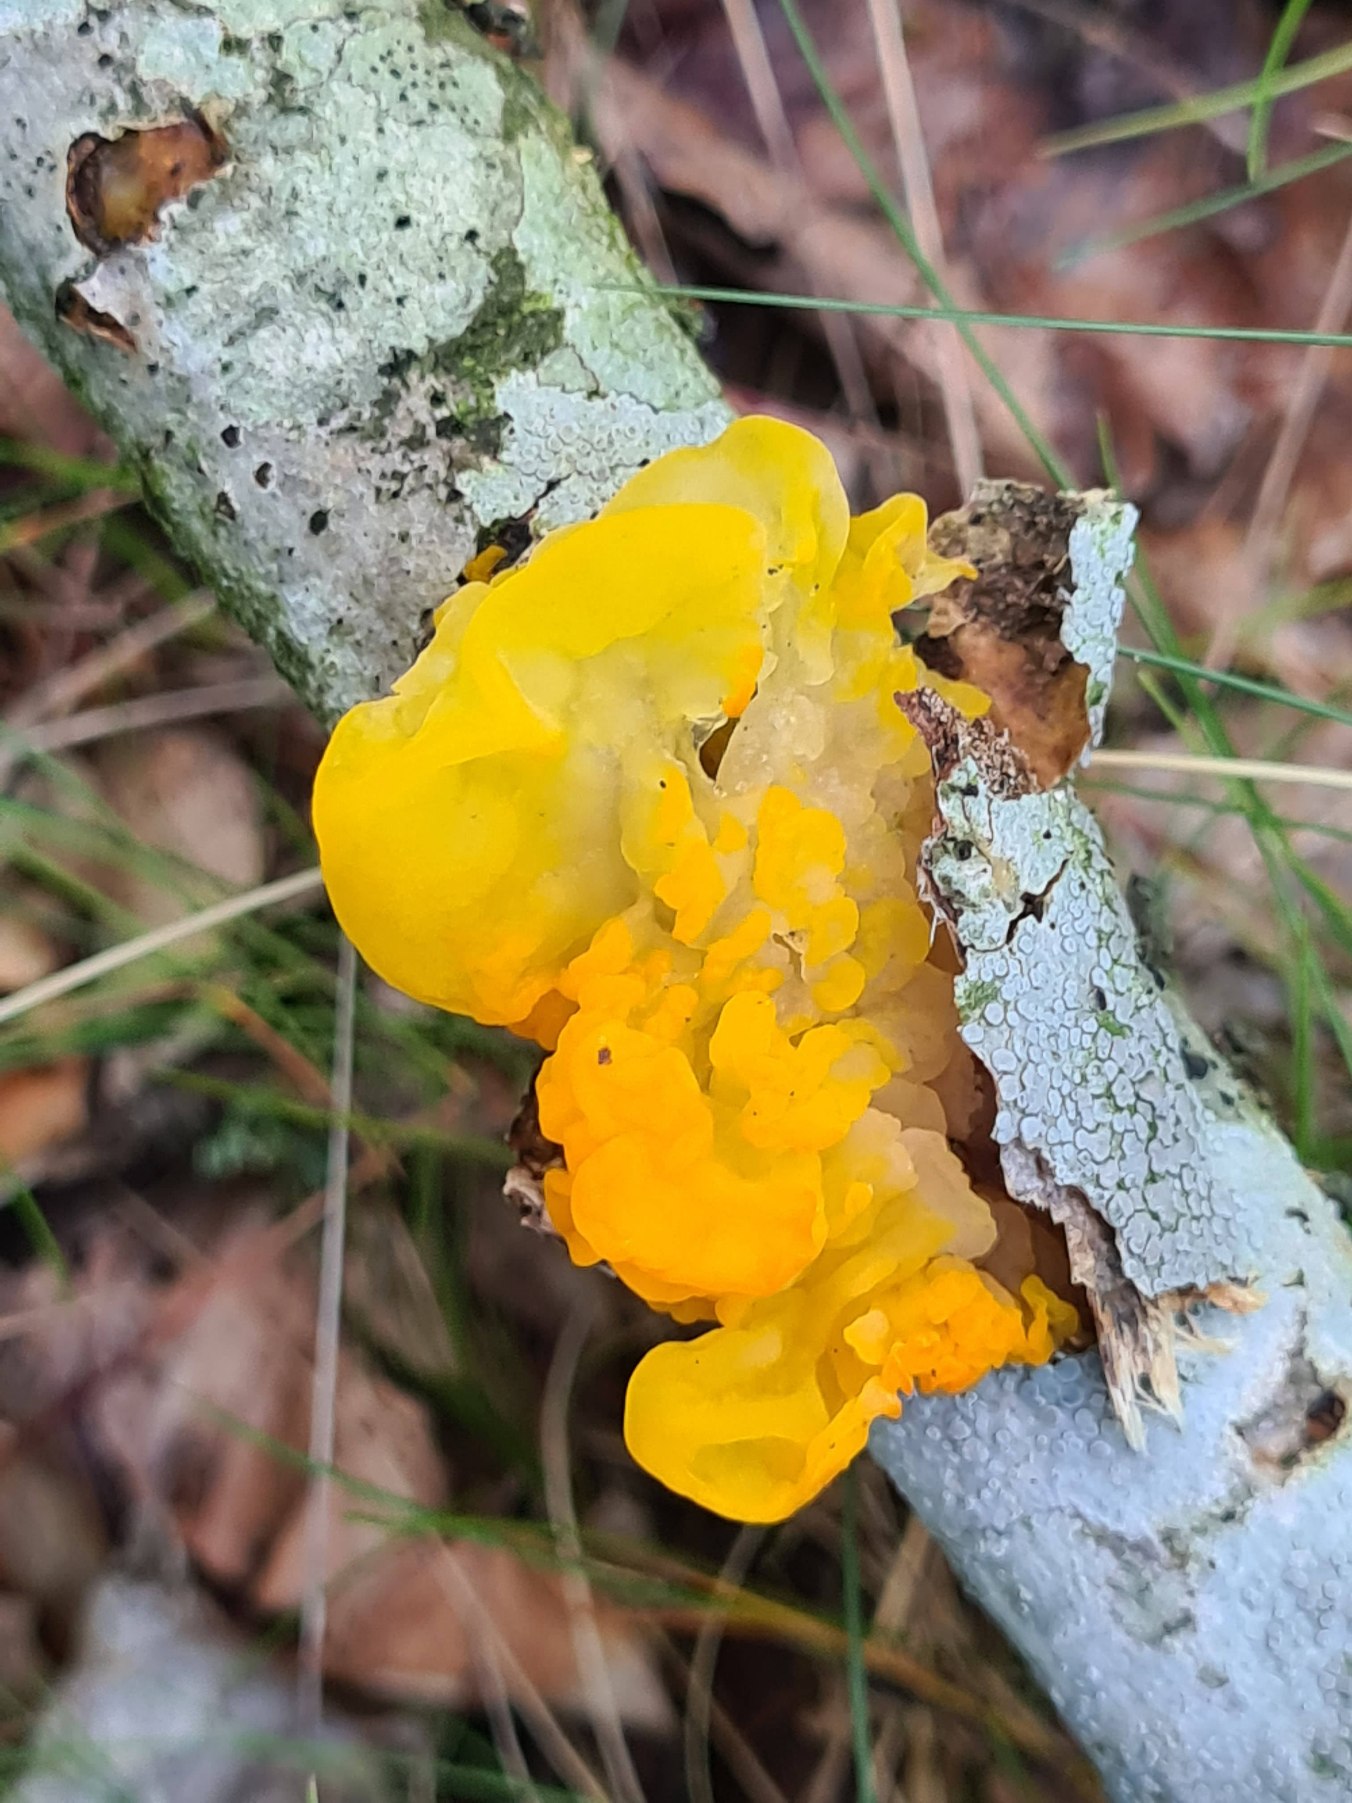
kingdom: Fungi
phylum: Basidiomycota
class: Tremellomycetes
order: Tremellales
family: Tremellaceae
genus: Tremella
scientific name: Tremella mesenterica
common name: Gul bævresvamp
